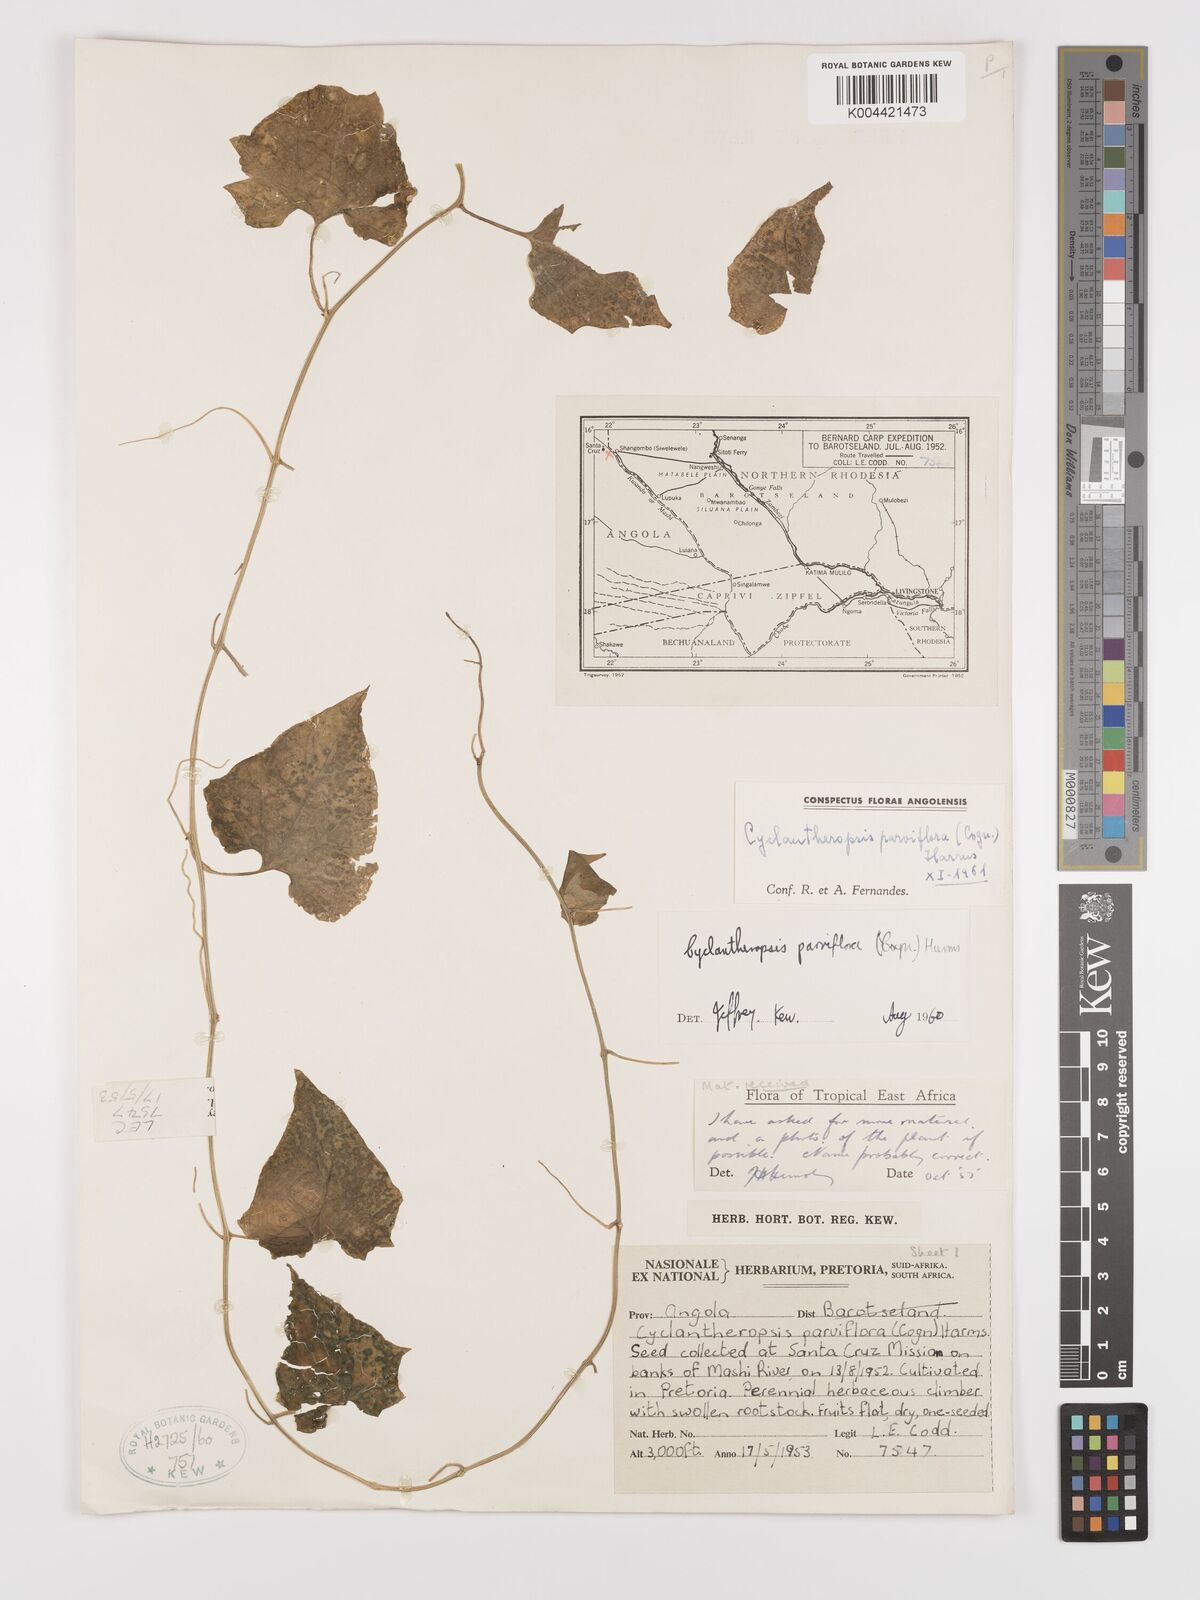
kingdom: Plantae
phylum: Tracheophyta
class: Magnoliopsida
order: Cucurbitales
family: Cucurbitaceae
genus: Cyclantheropsis
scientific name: Cyclantheropsis parviflora
